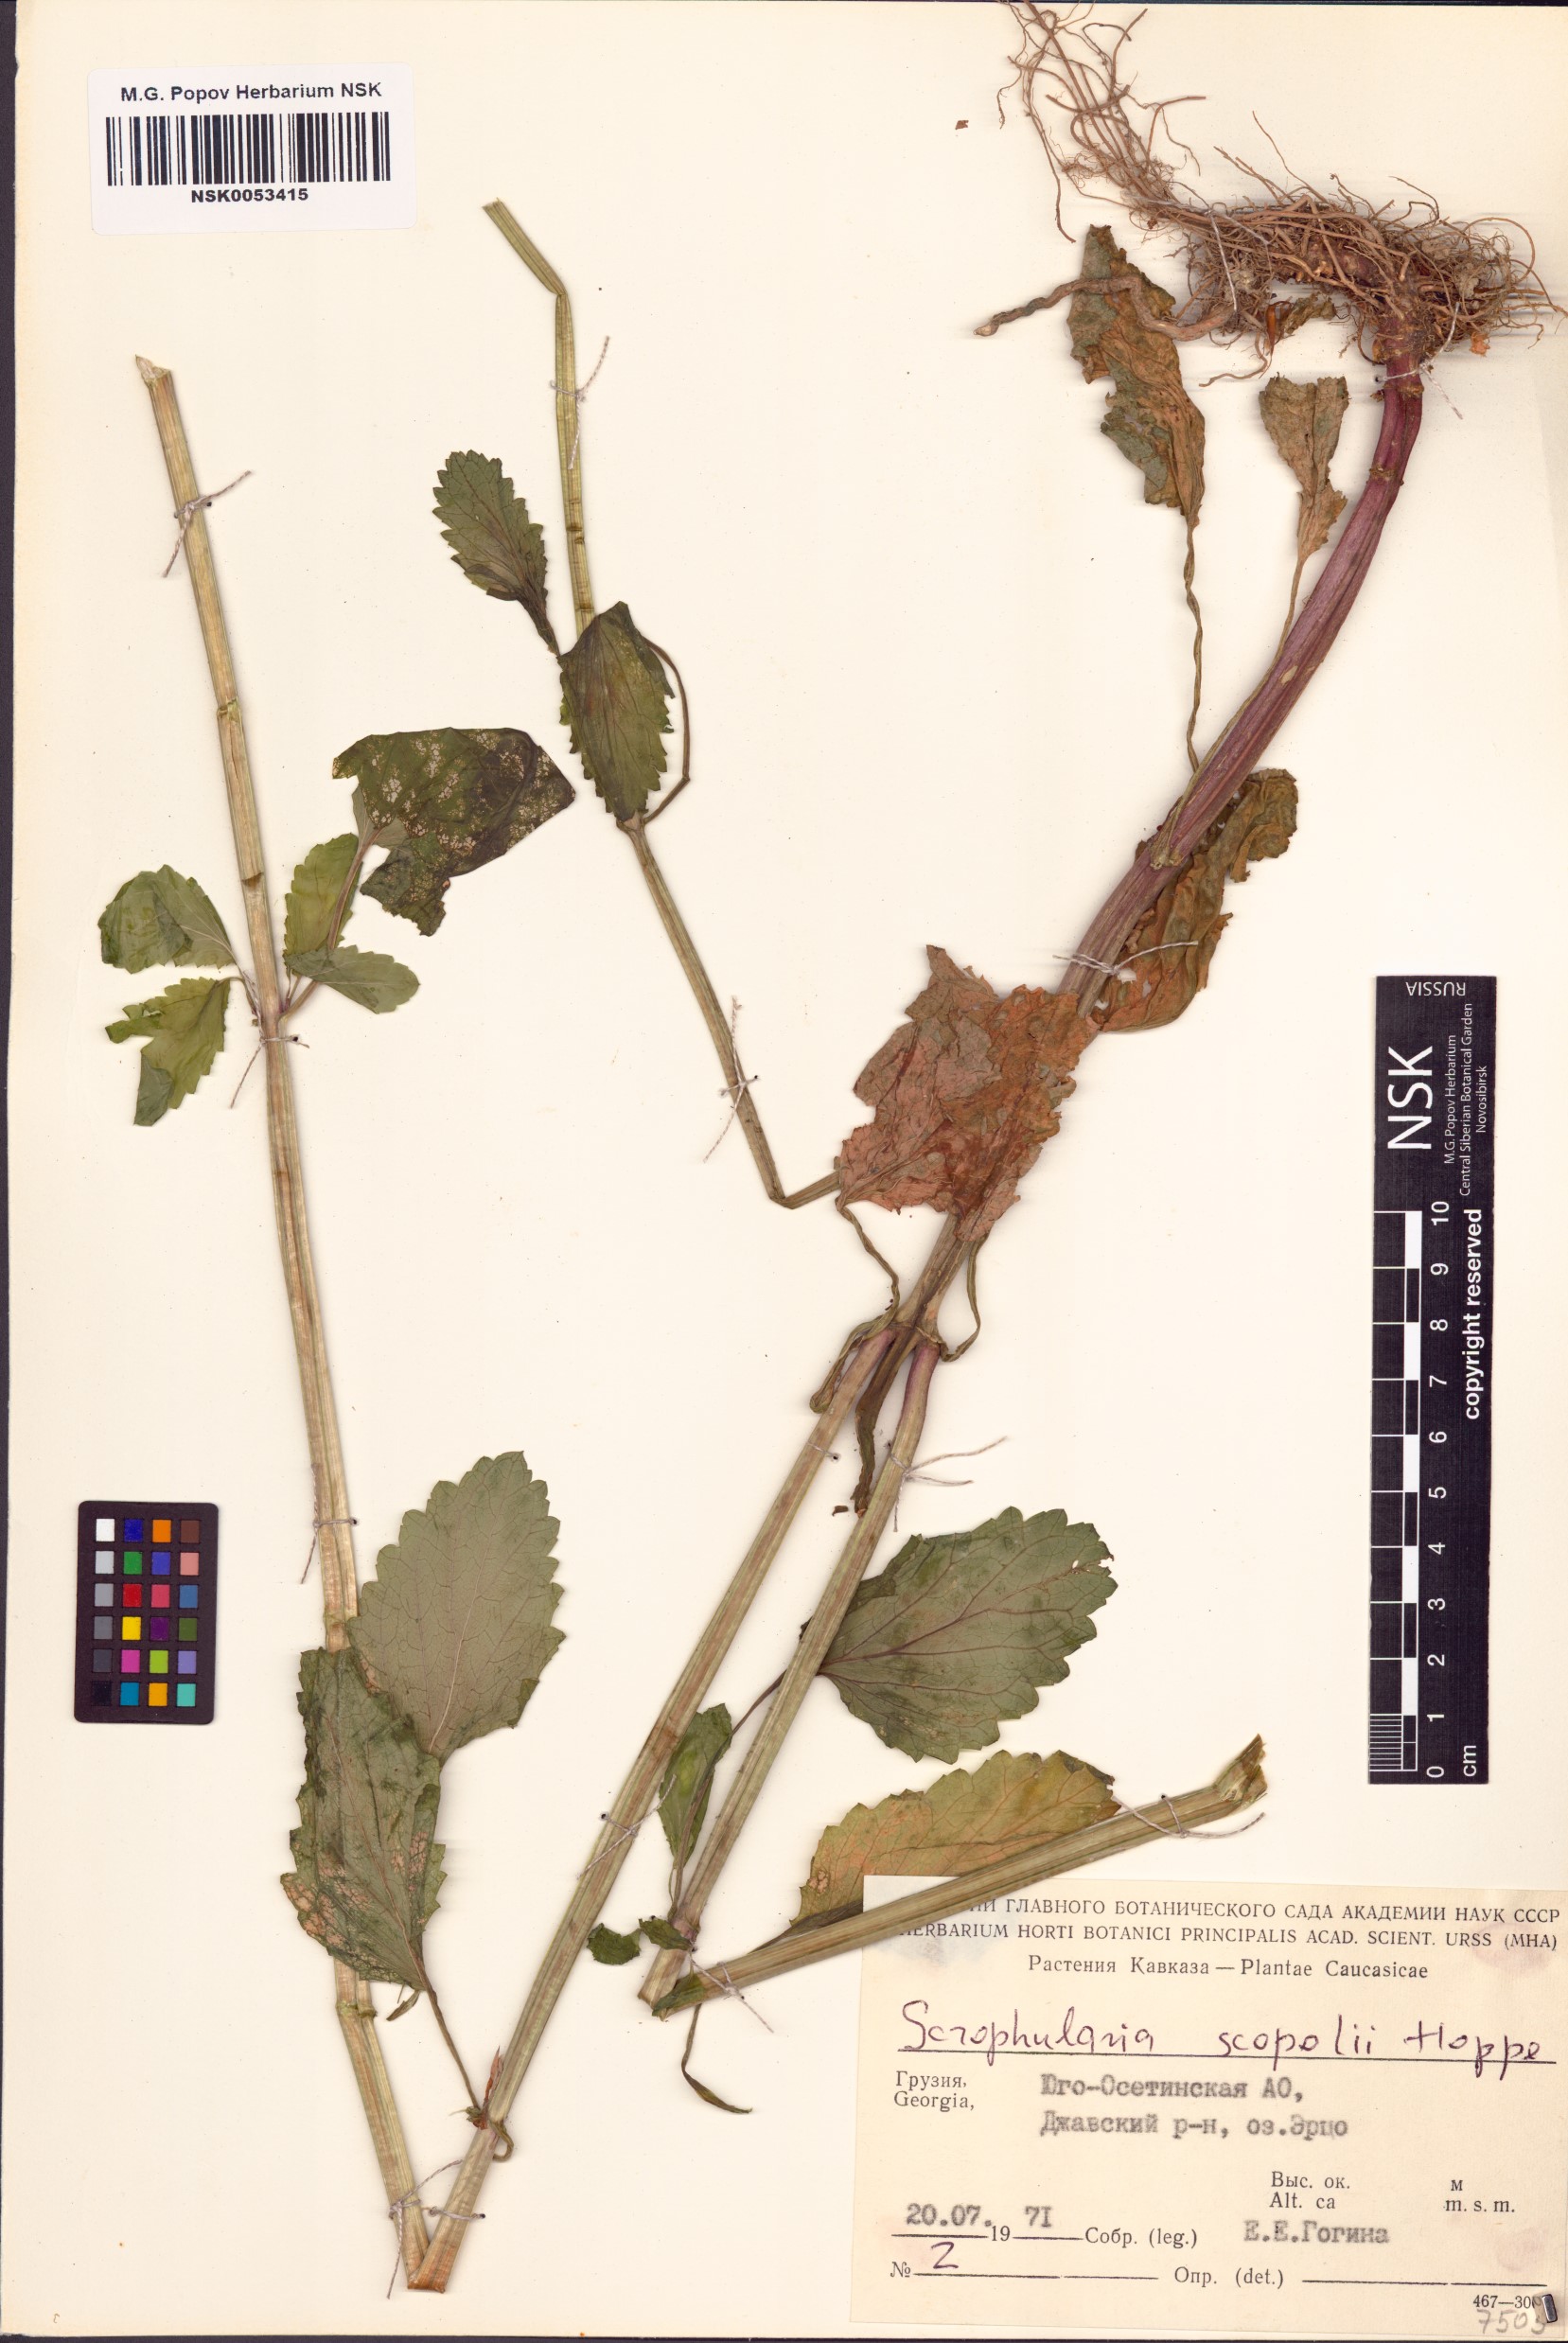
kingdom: Plantae
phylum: Tracheophyta
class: Magnoliopsida
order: Lamiales
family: Scrophulariaceae
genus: Scrophularia
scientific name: Scrophularia scopolii
